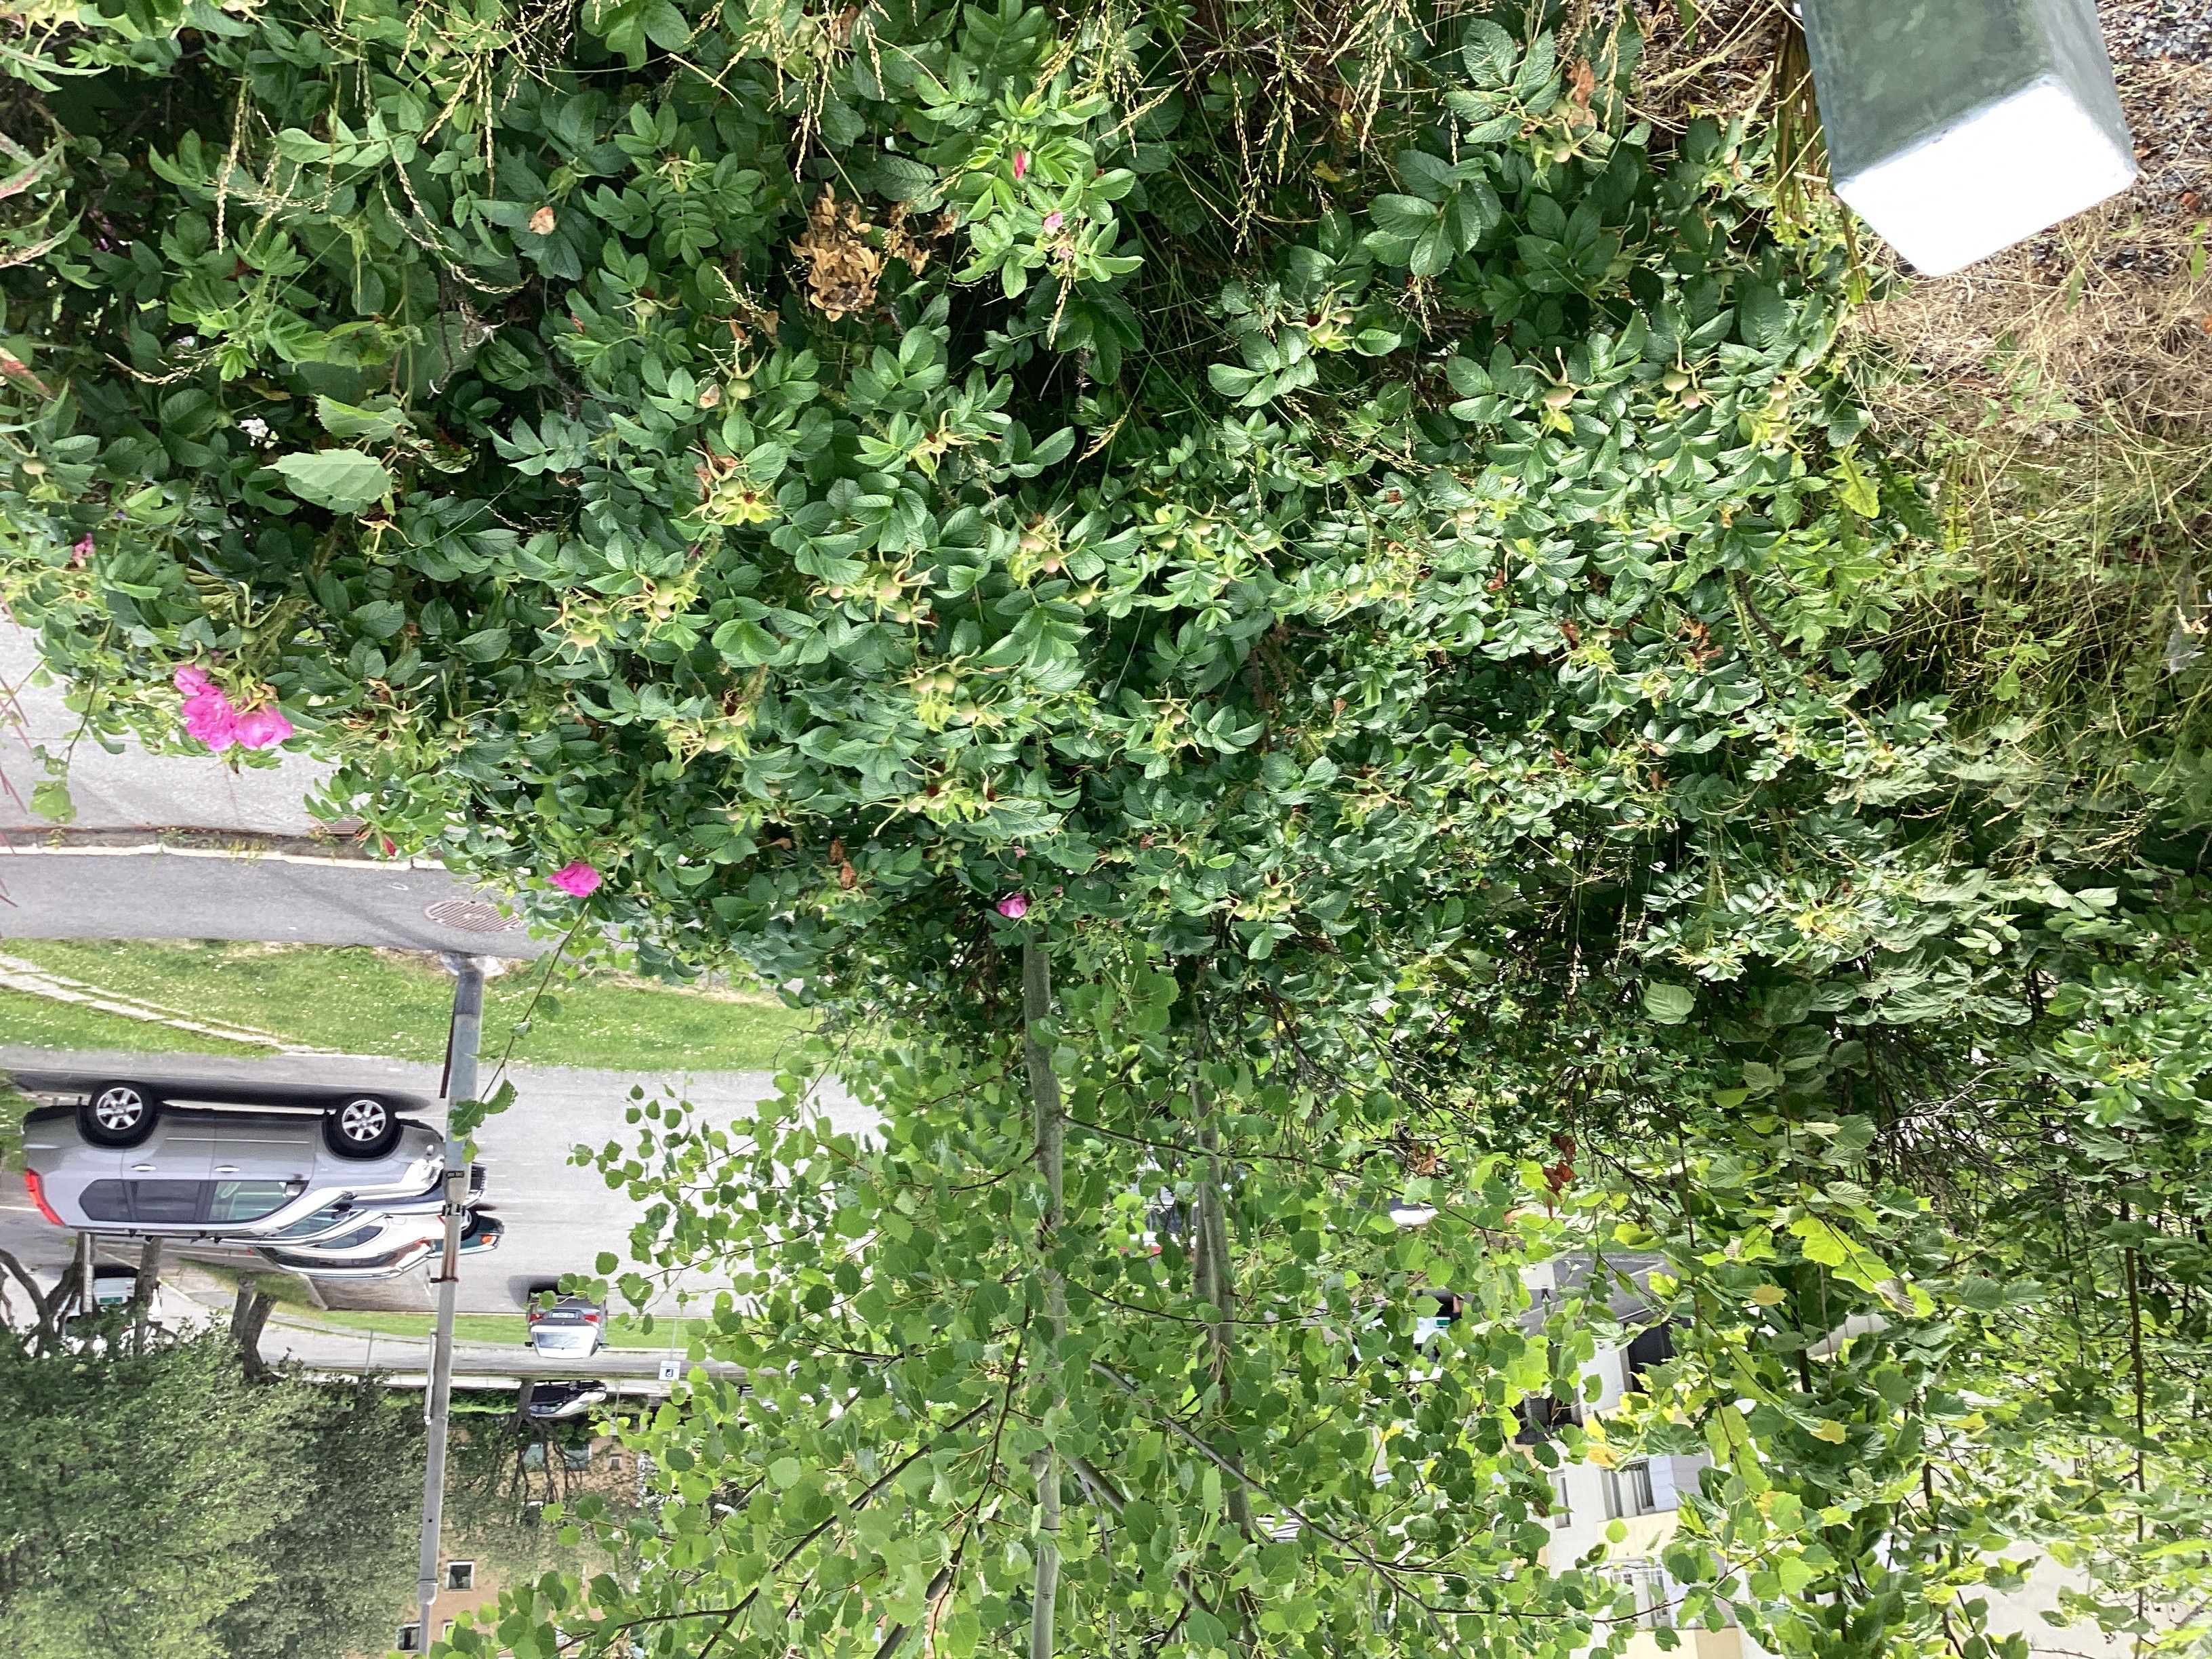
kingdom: Plantae
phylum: Tracheophyta
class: Magnoliopsida
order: Rosales
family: Rosaceae
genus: Rosa
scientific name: Rosa rugosa
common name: rynkerose
